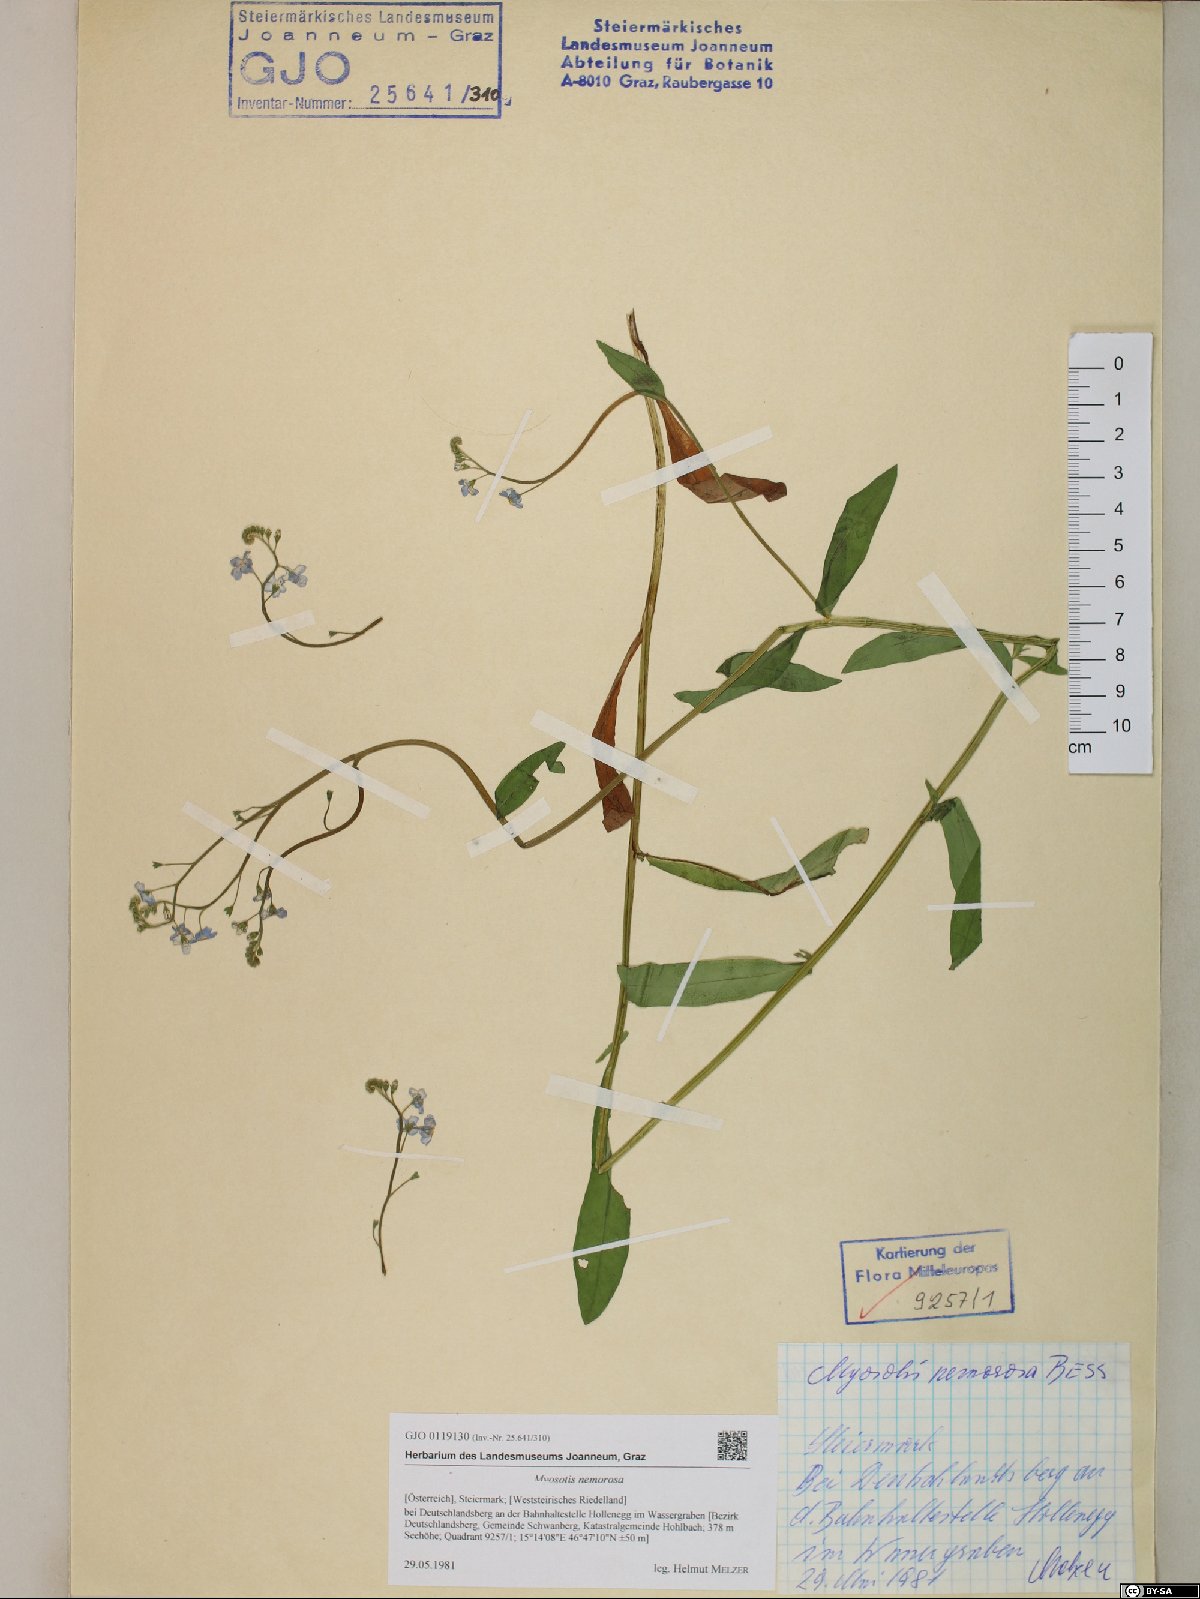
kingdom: Plantae
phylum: Tracheophyta
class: Magnoliopsida
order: Boraginales
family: Boraginaceae
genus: Myosotis
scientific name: Myosotis nemorosa
